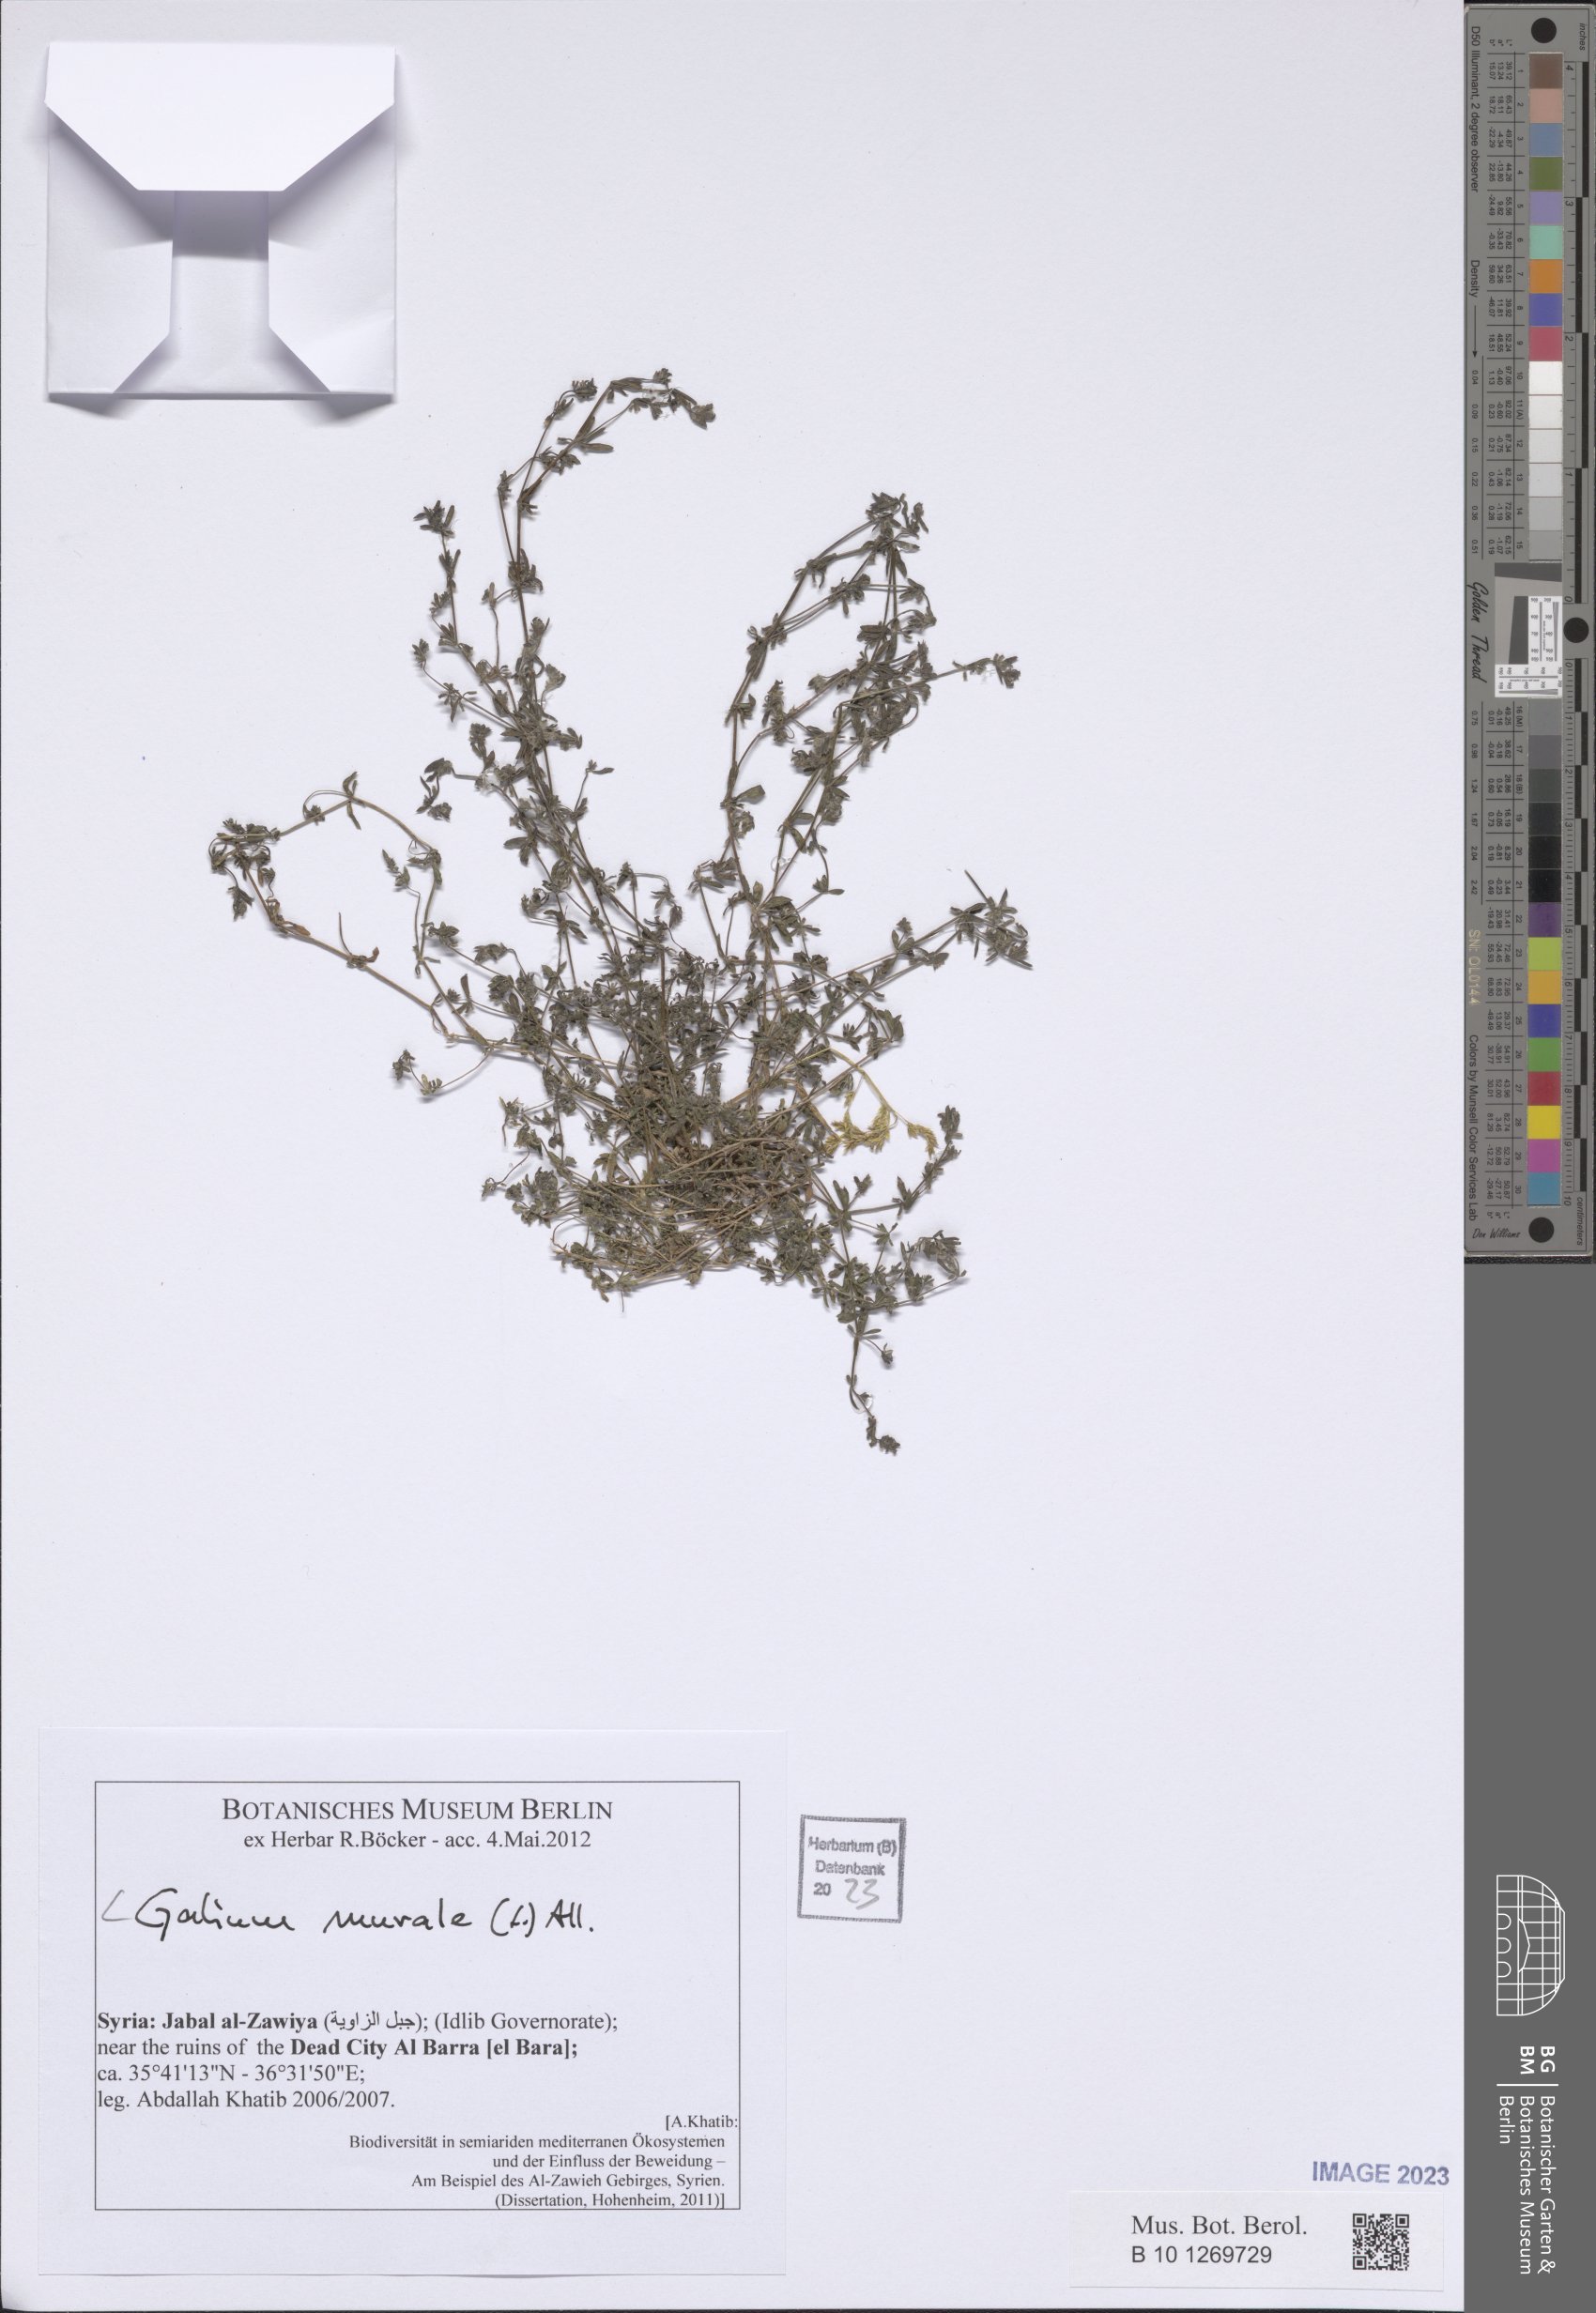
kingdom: Plantae
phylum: Tracheophyta
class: Magnoliopsida
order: Gentianales
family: Rubiaceae
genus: Galium
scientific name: Galium murale
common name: Yellow wall bedstraw
